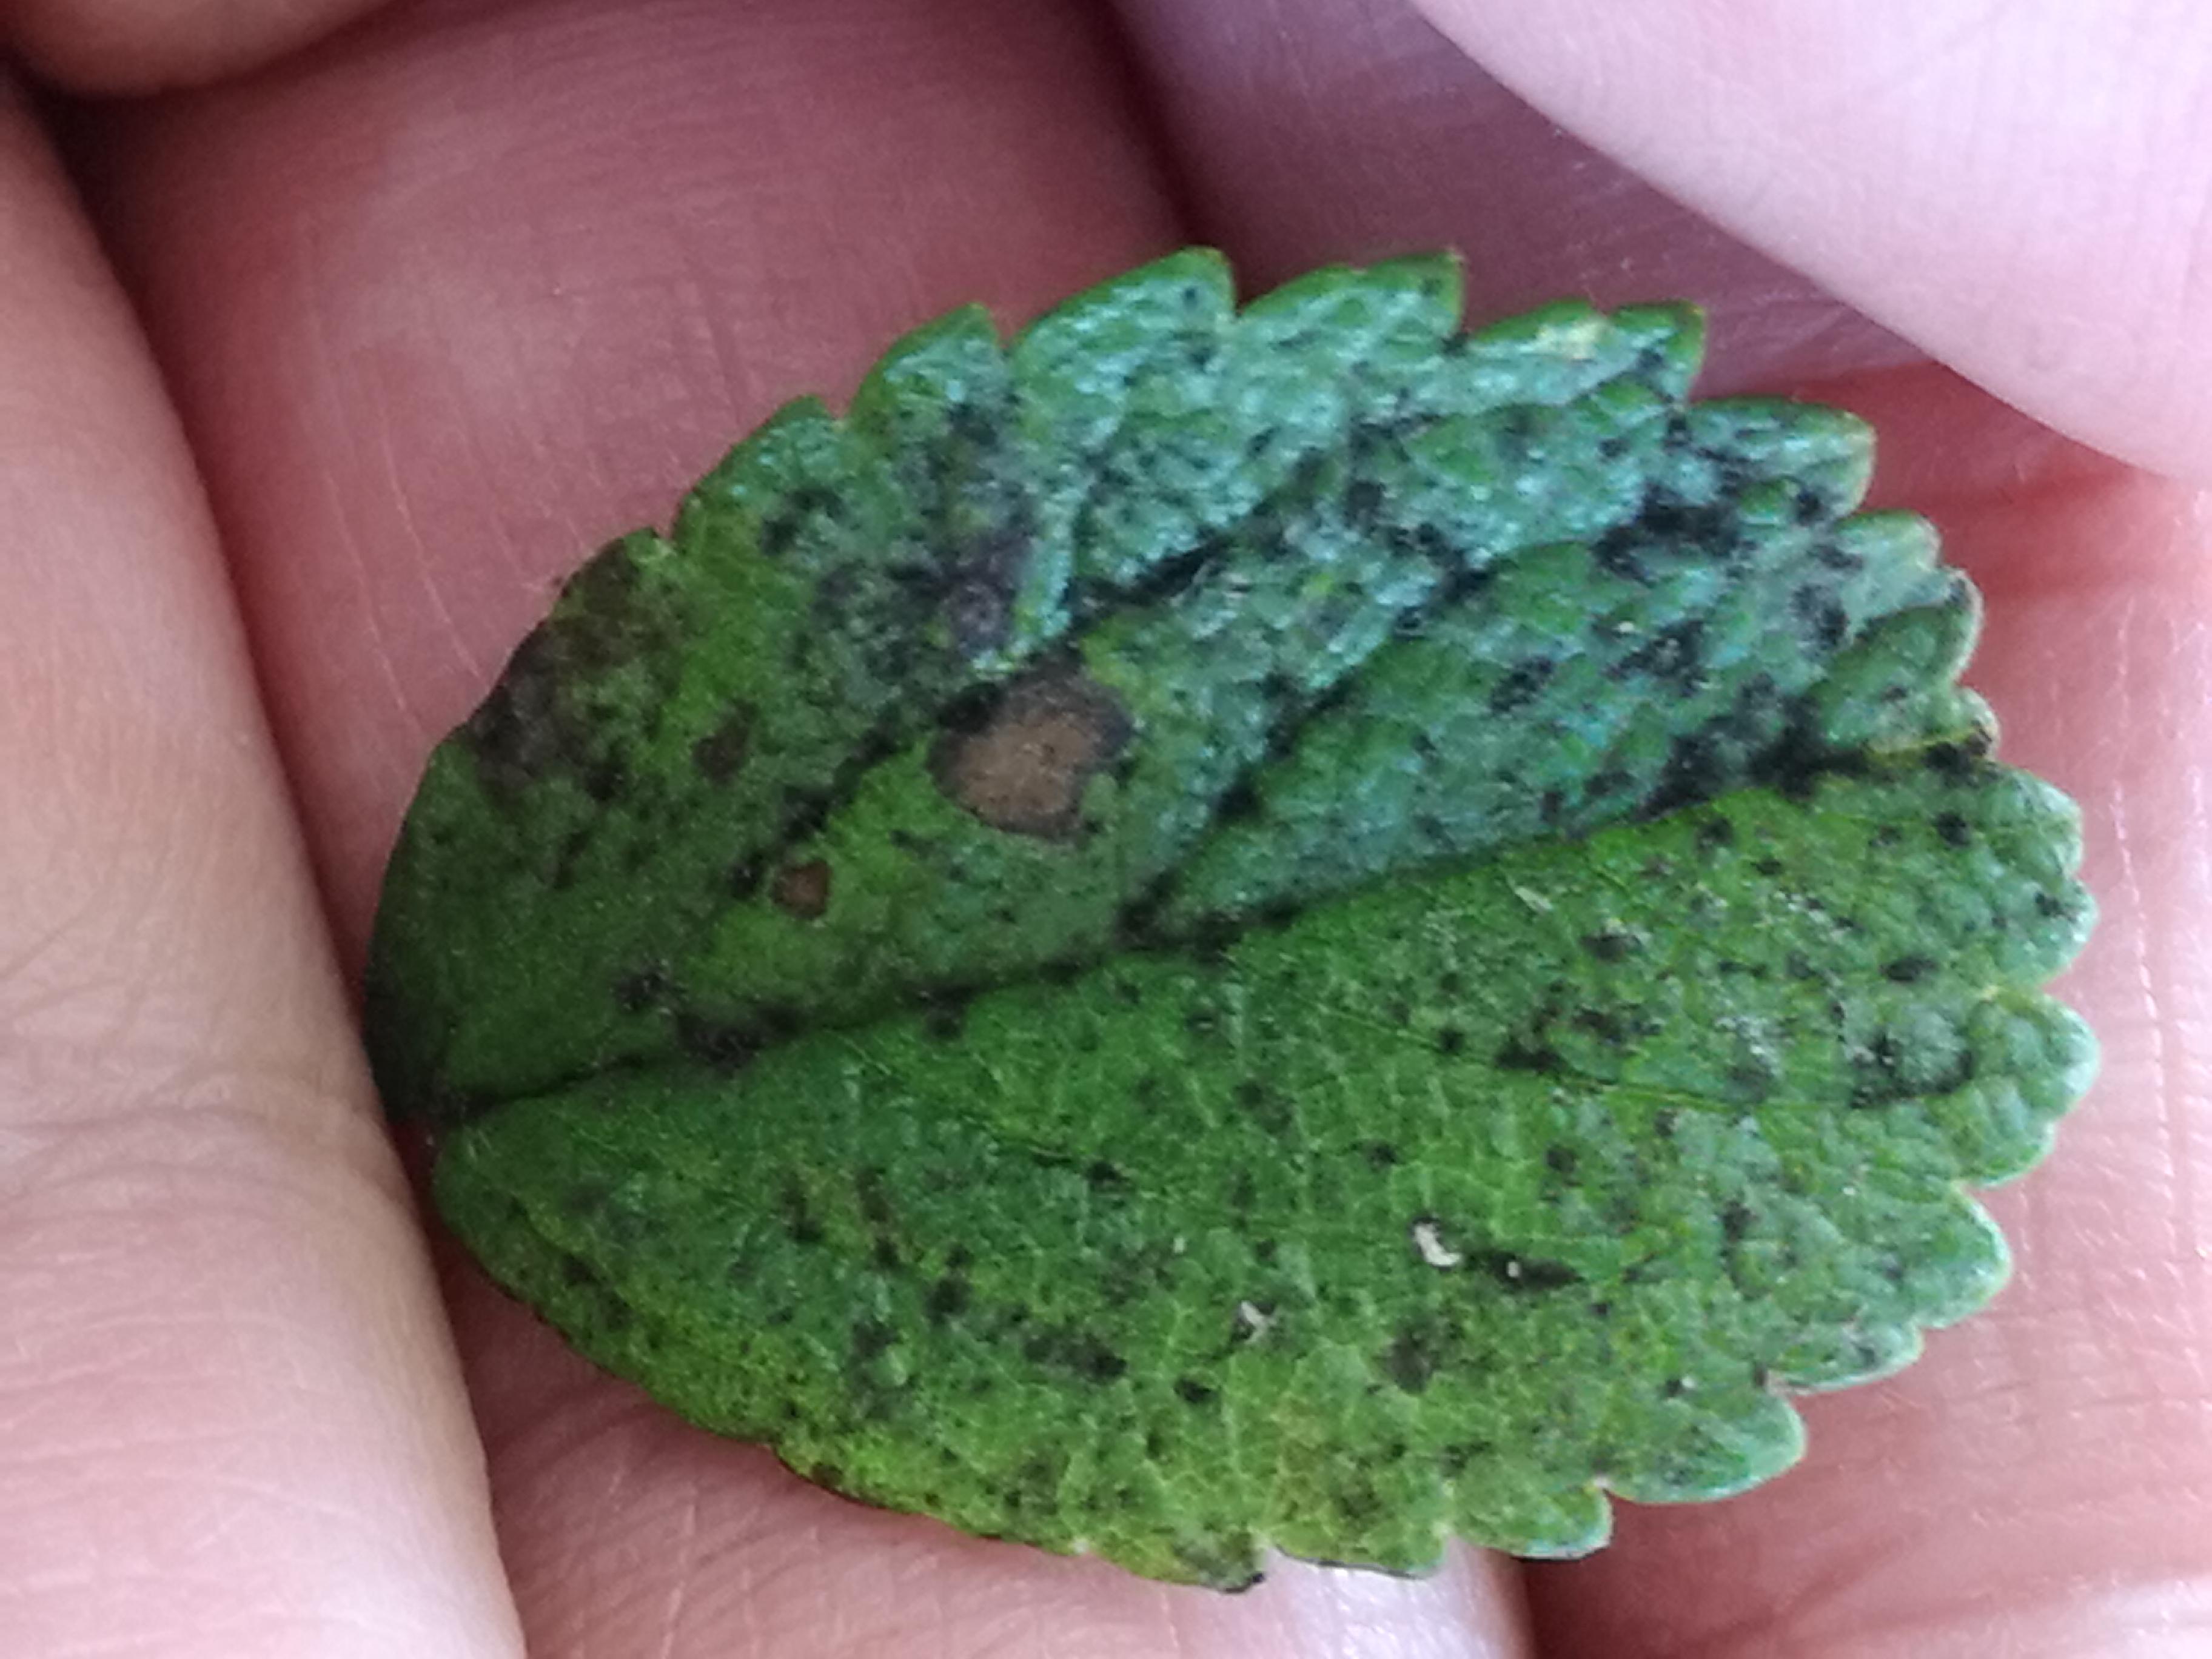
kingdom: Fungi
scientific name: Fungi
